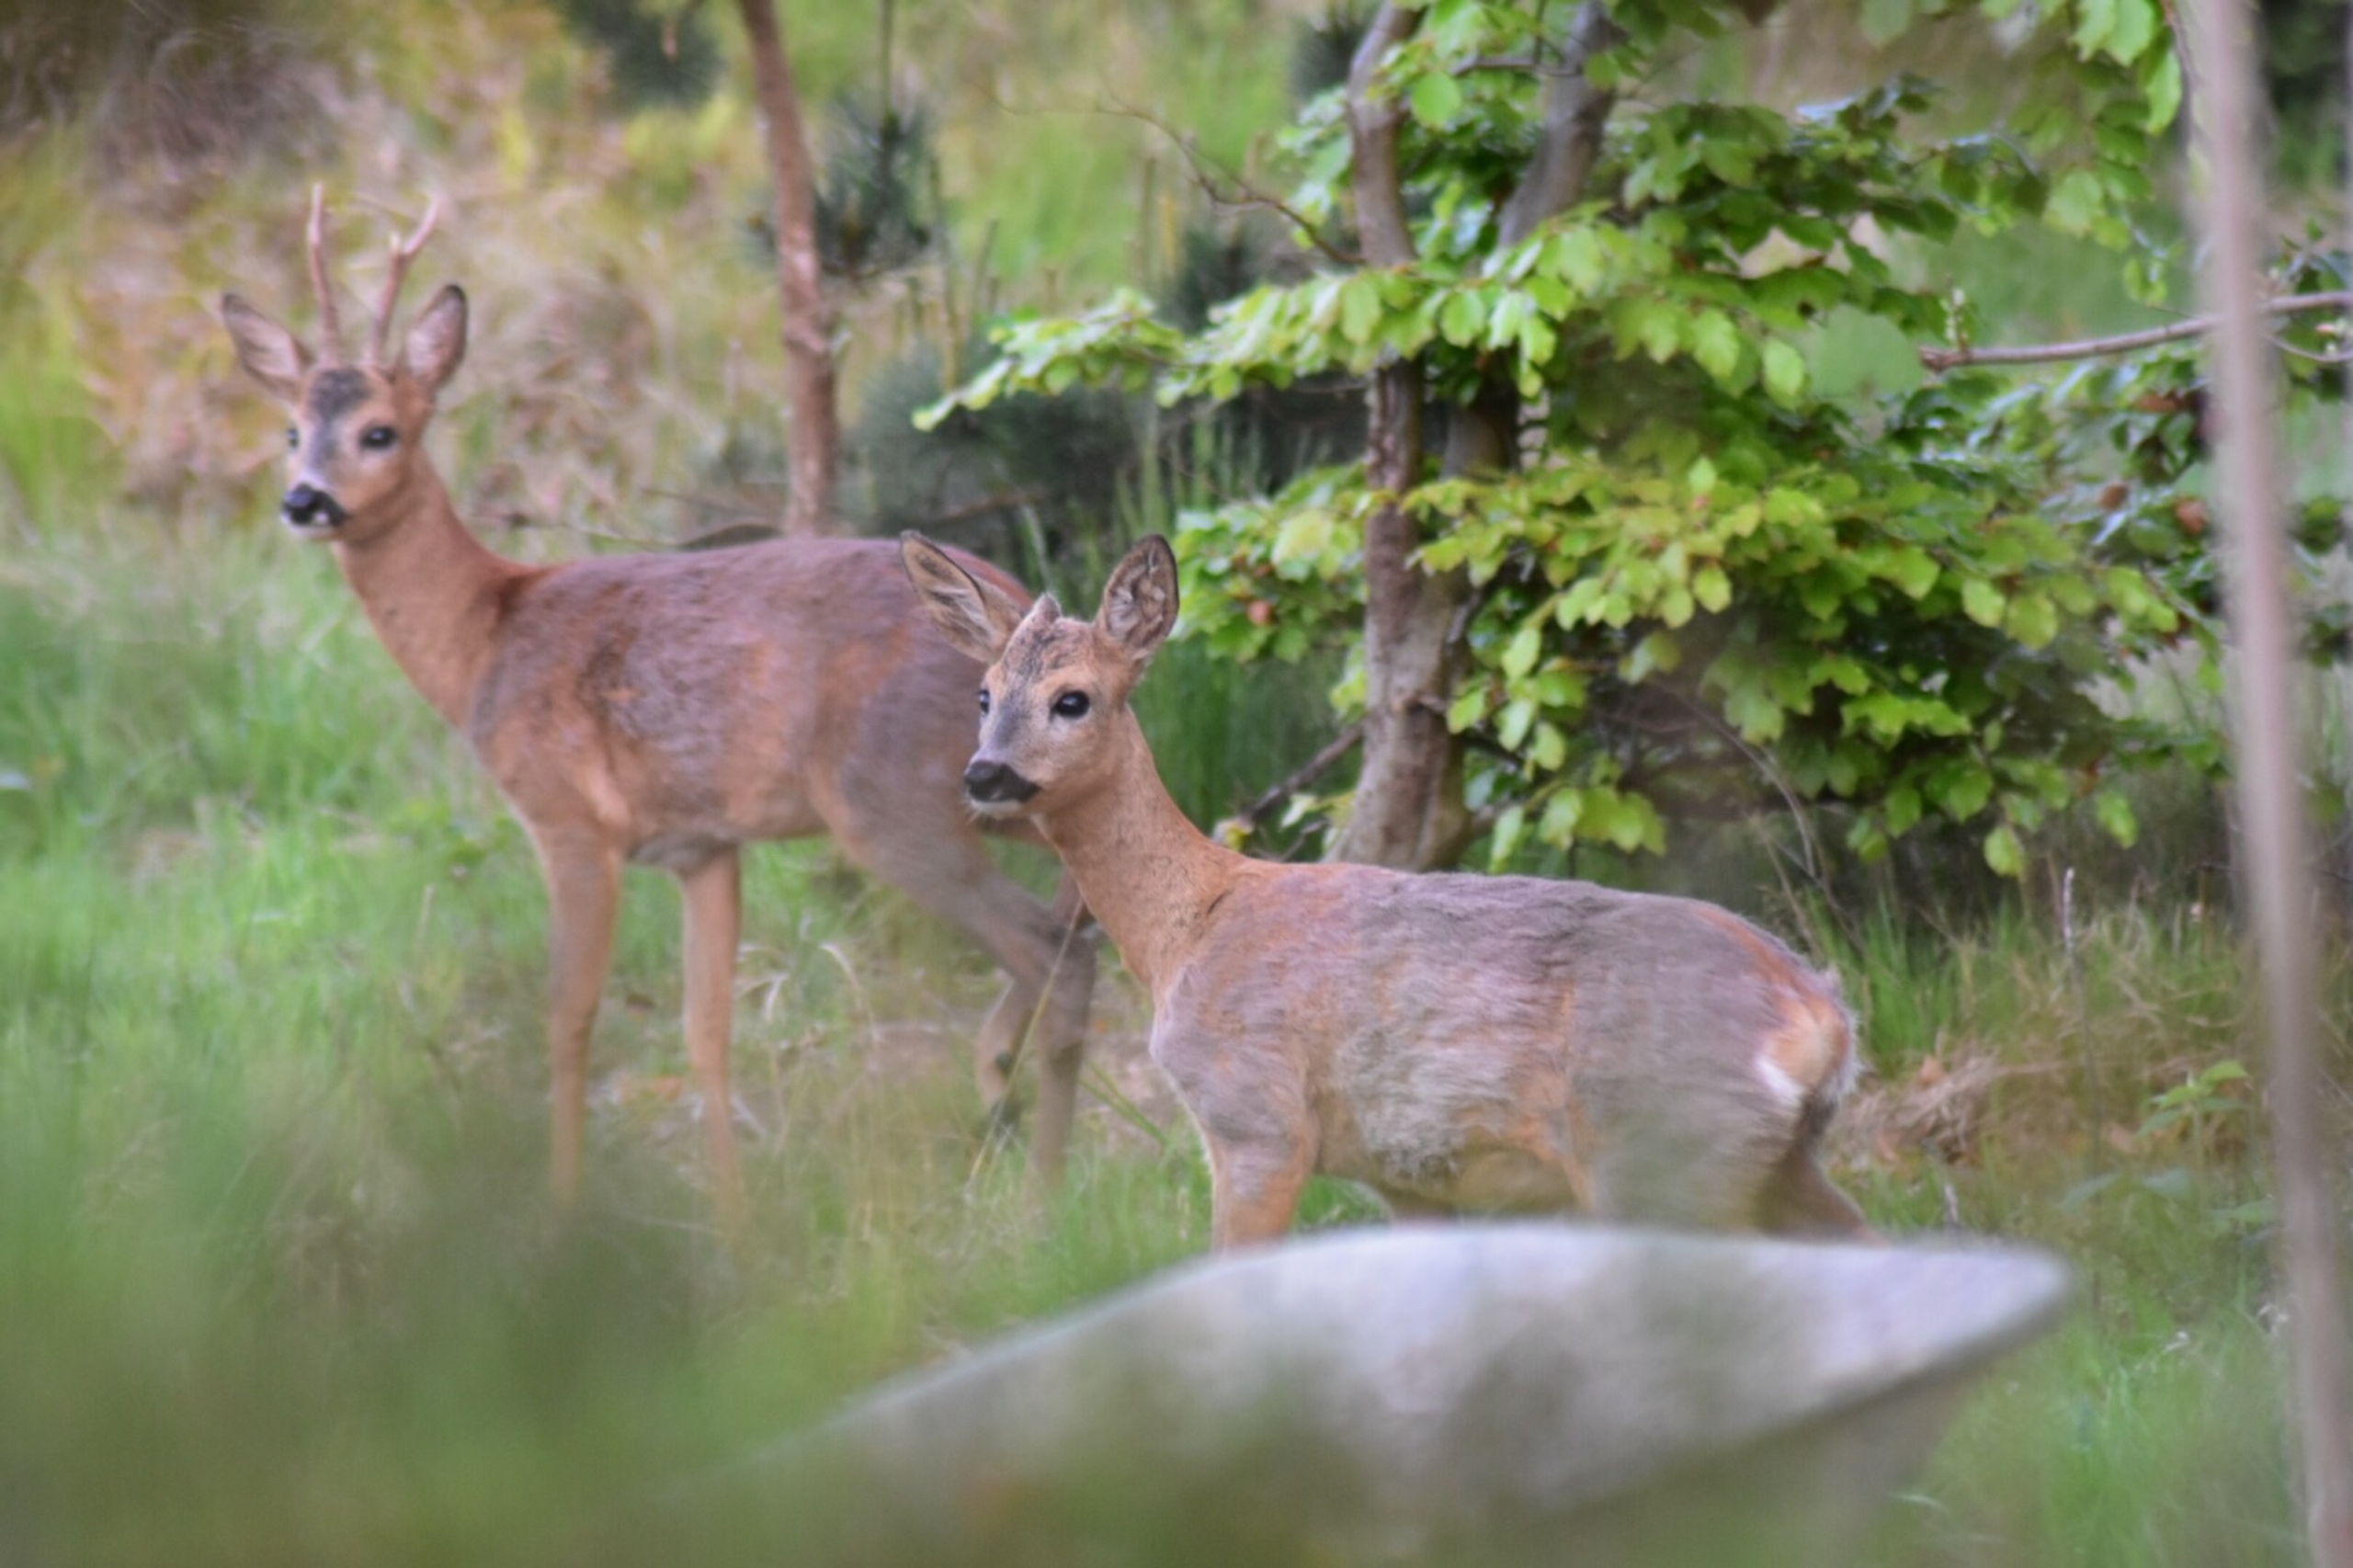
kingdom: Animalia
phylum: Chordata
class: Mammalia
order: Artiodactyla
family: Cervidae
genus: Capreolus
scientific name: Capreolus capreolus
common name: Rådyr
